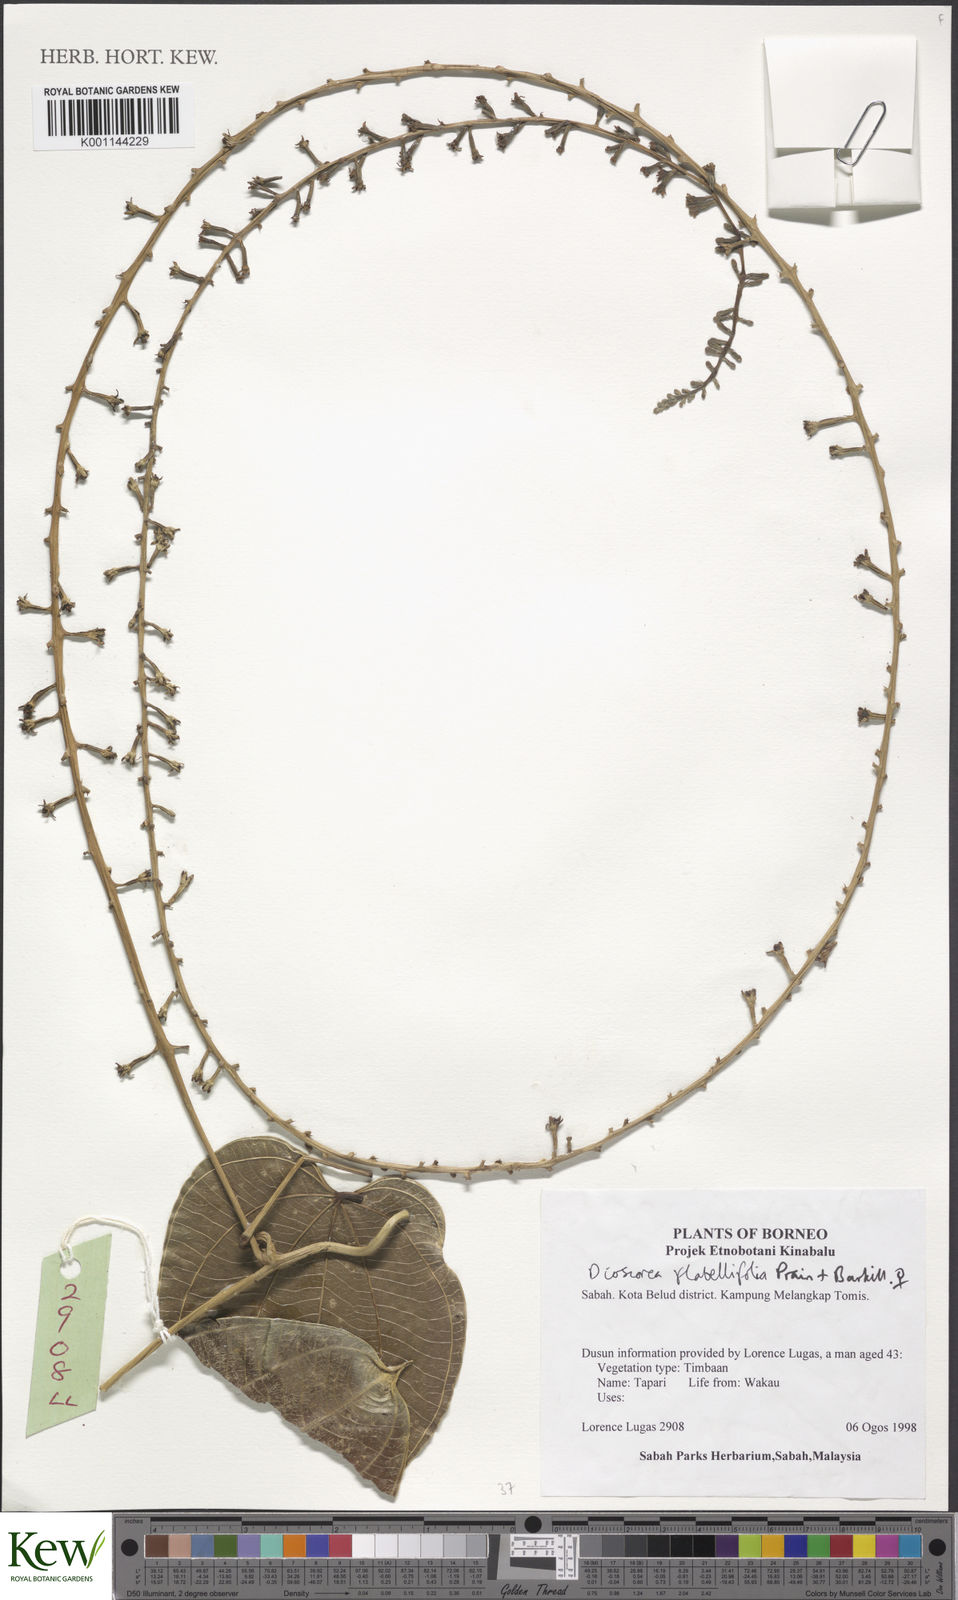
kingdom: Plantae
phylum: Tracheophyta
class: Liliopsida
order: Dioscoreales
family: Dioscoreaceae
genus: Dioscorea
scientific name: Dioscorea flabellifolia
